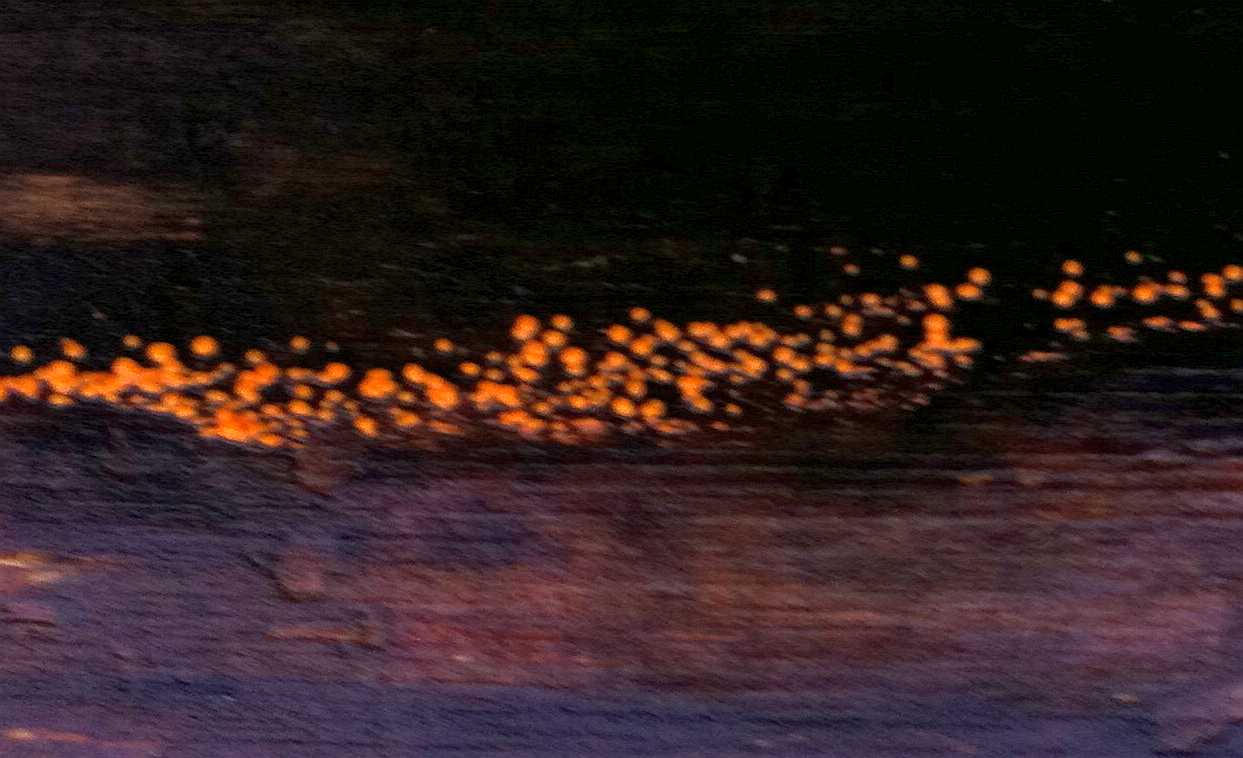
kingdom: Fungi
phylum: Basidiomycota
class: Dacrymycetes
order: Dacrymycetales
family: Dacrymycetaceae
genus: Dacrymyces
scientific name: Dacrymyces stillatus
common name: almindelig tåresvamp
